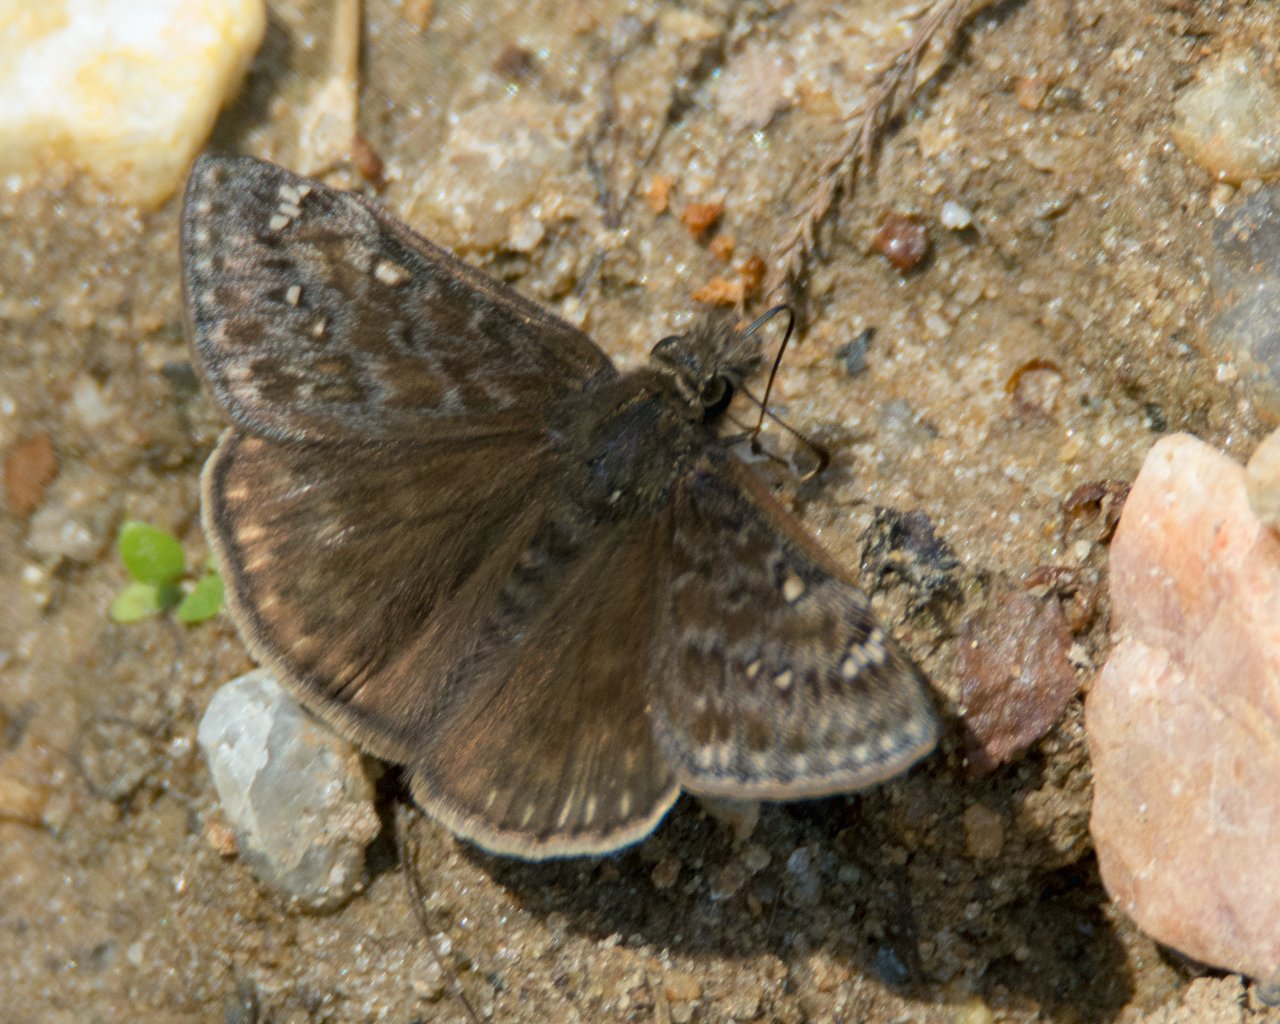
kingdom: Animalia
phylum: Arthropoda
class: Insecta
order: Lepidoptera
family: Hesperiidae
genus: Gesta
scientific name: Gesta
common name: Juvenal's Duskywing
